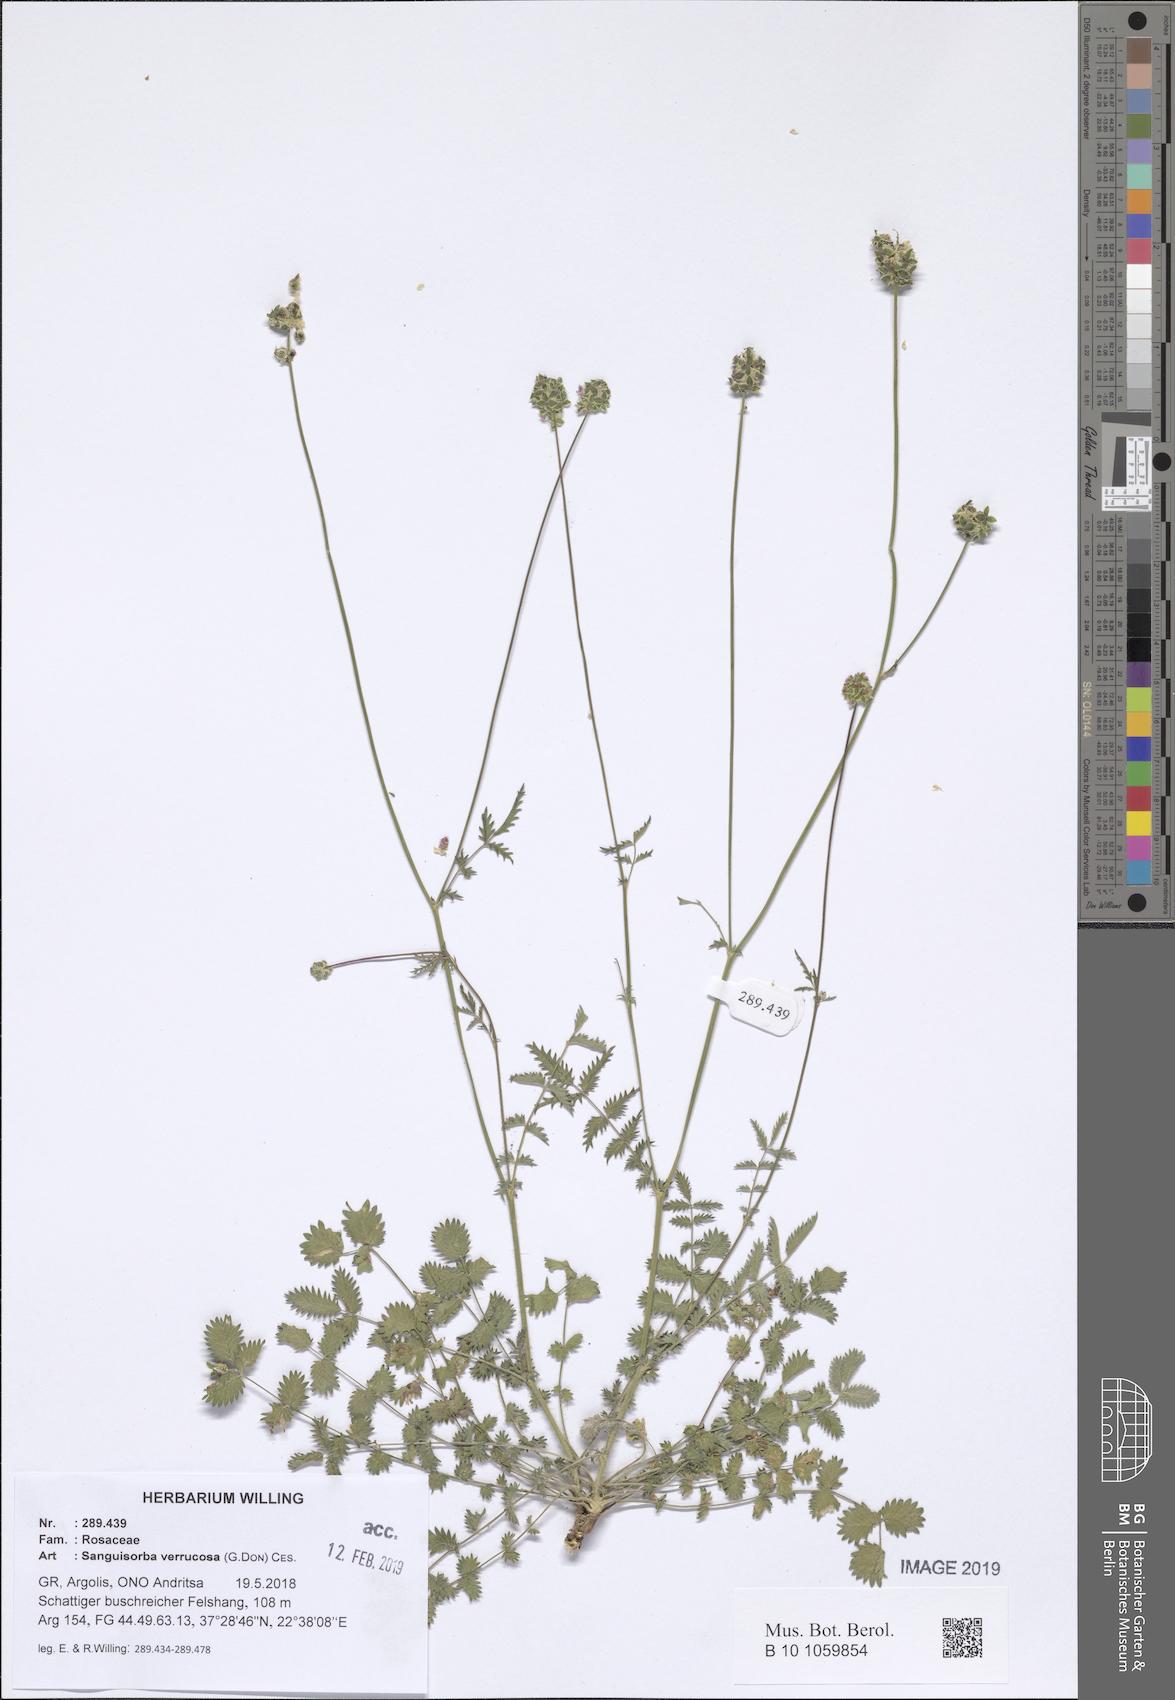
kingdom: Plantae
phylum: Tracheophyta
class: Magnoliopsida
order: Rosales
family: Rosaceae
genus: Poterium
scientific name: Poterium verrucosum
